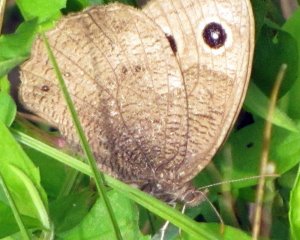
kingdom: Animalia
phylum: Arthropoda
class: Insecta
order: Lepidoptera
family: Nymphalidae
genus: Cercyonis
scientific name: Cercyonis pegala
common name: Common Wood-Nymph
